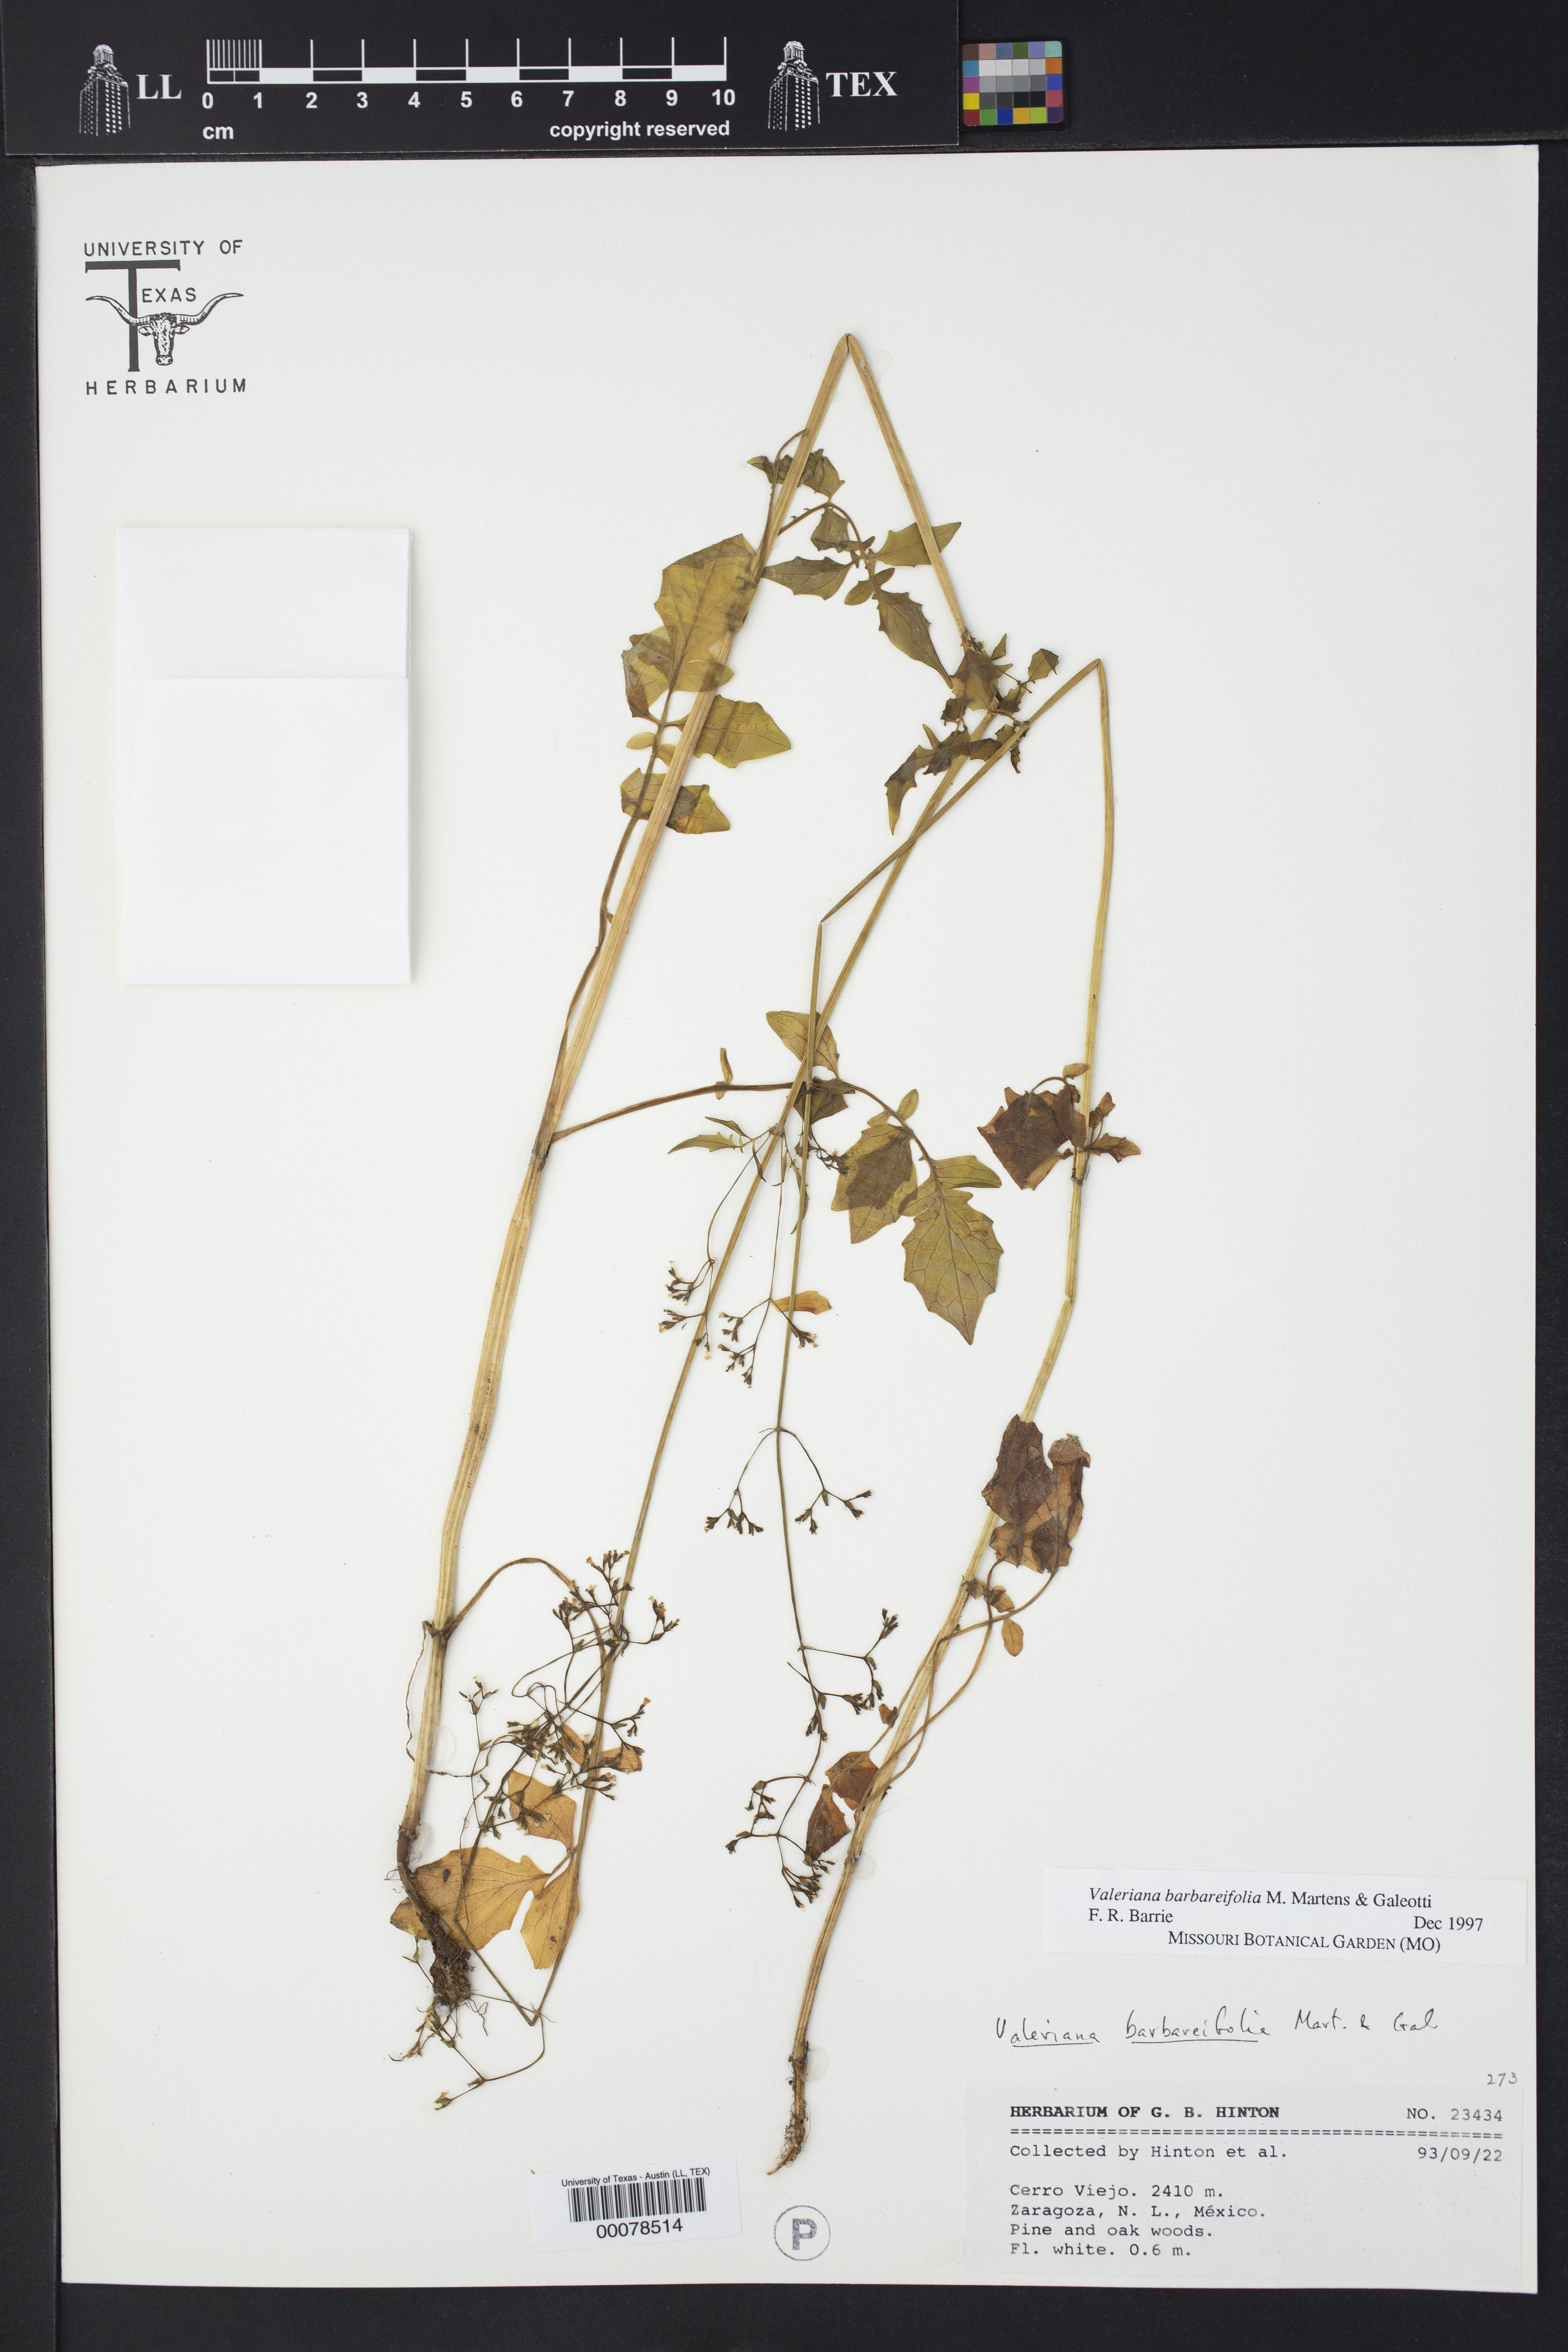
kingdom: Plantae
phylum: Tracheophyta
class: Magnoliopsida
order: Dipsacales
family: Caprifoliaceae
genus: Valeriana
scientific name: Valeriana barbareifolia
